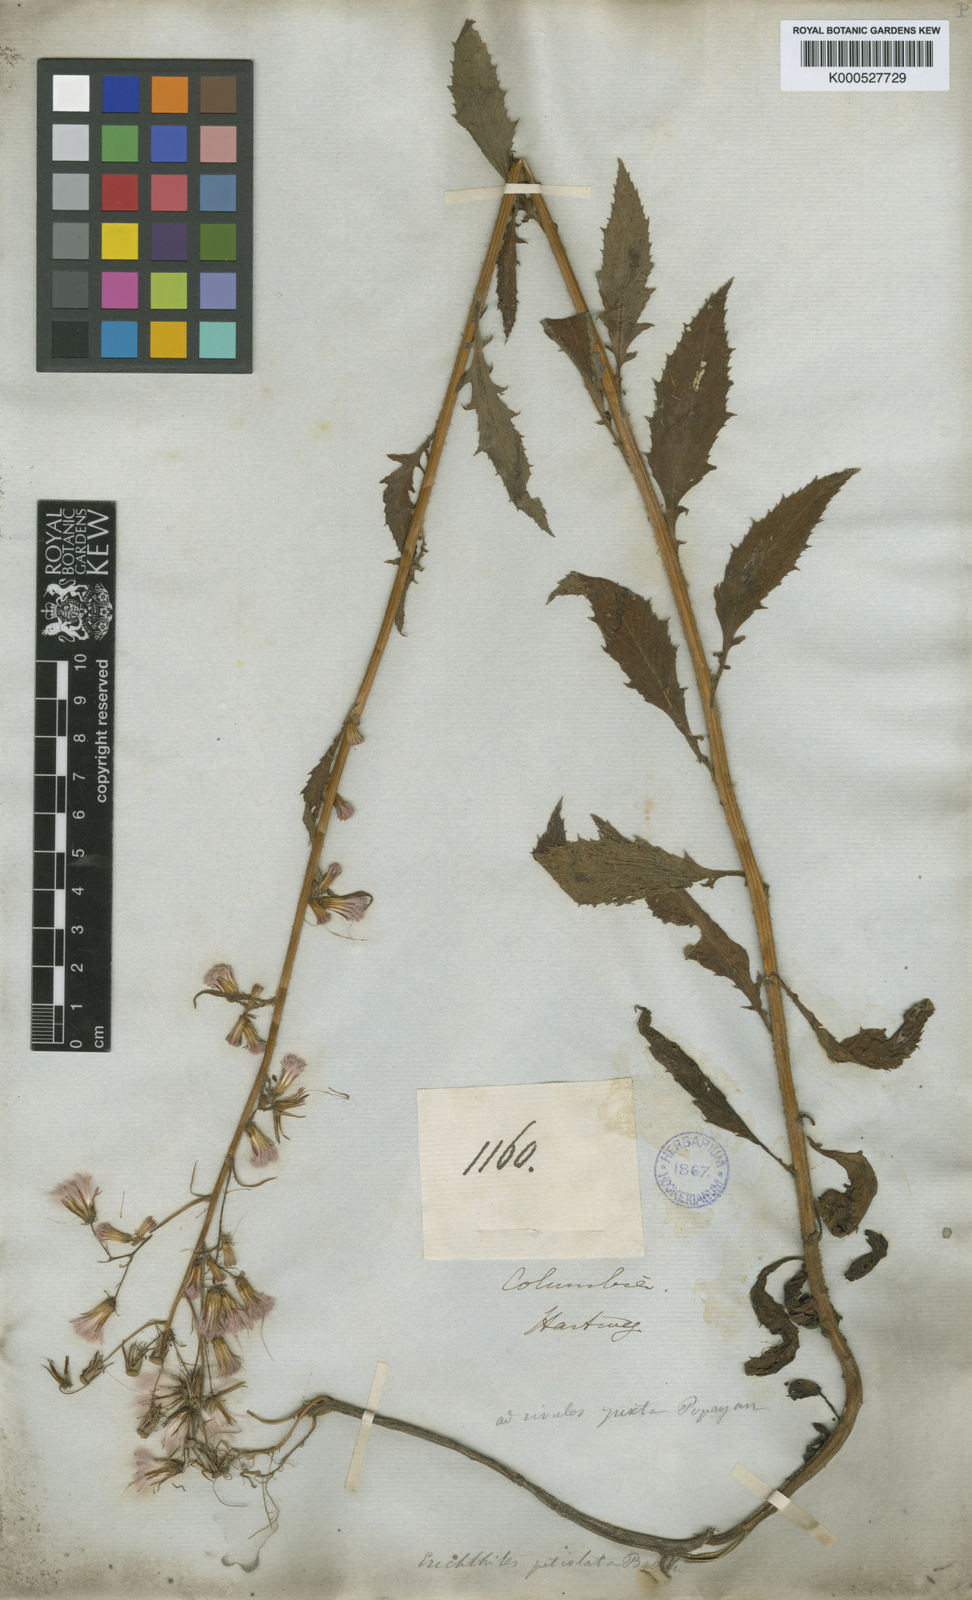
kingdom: Plantae
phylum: Tracheophyta
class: Magnoliopsida
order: Asterales
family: Asteraceae
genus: Erechtites
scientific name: Erechtites albiflorus
